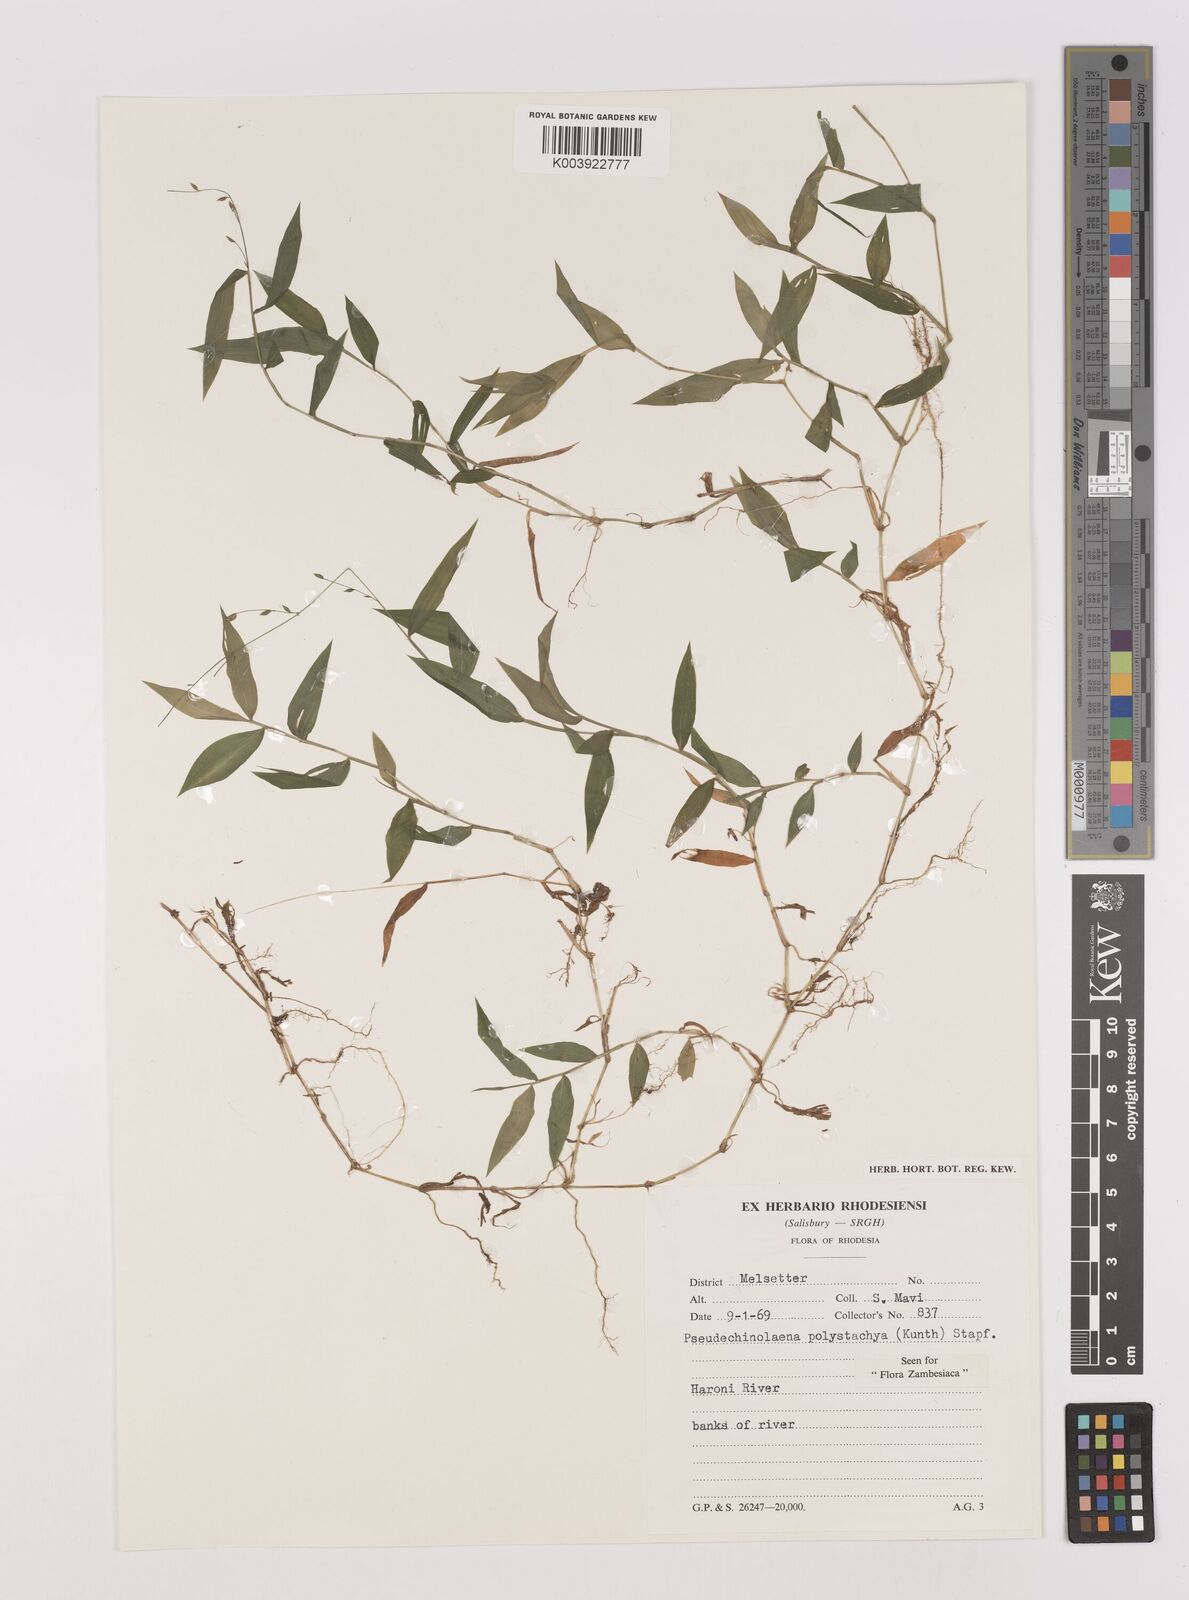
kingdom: Plantae
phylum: Tracheophyta
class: Liliopsida
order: Poales
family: Poaceae
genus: Pseudechinolaena
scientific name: Pseudechinolaena polystachya
